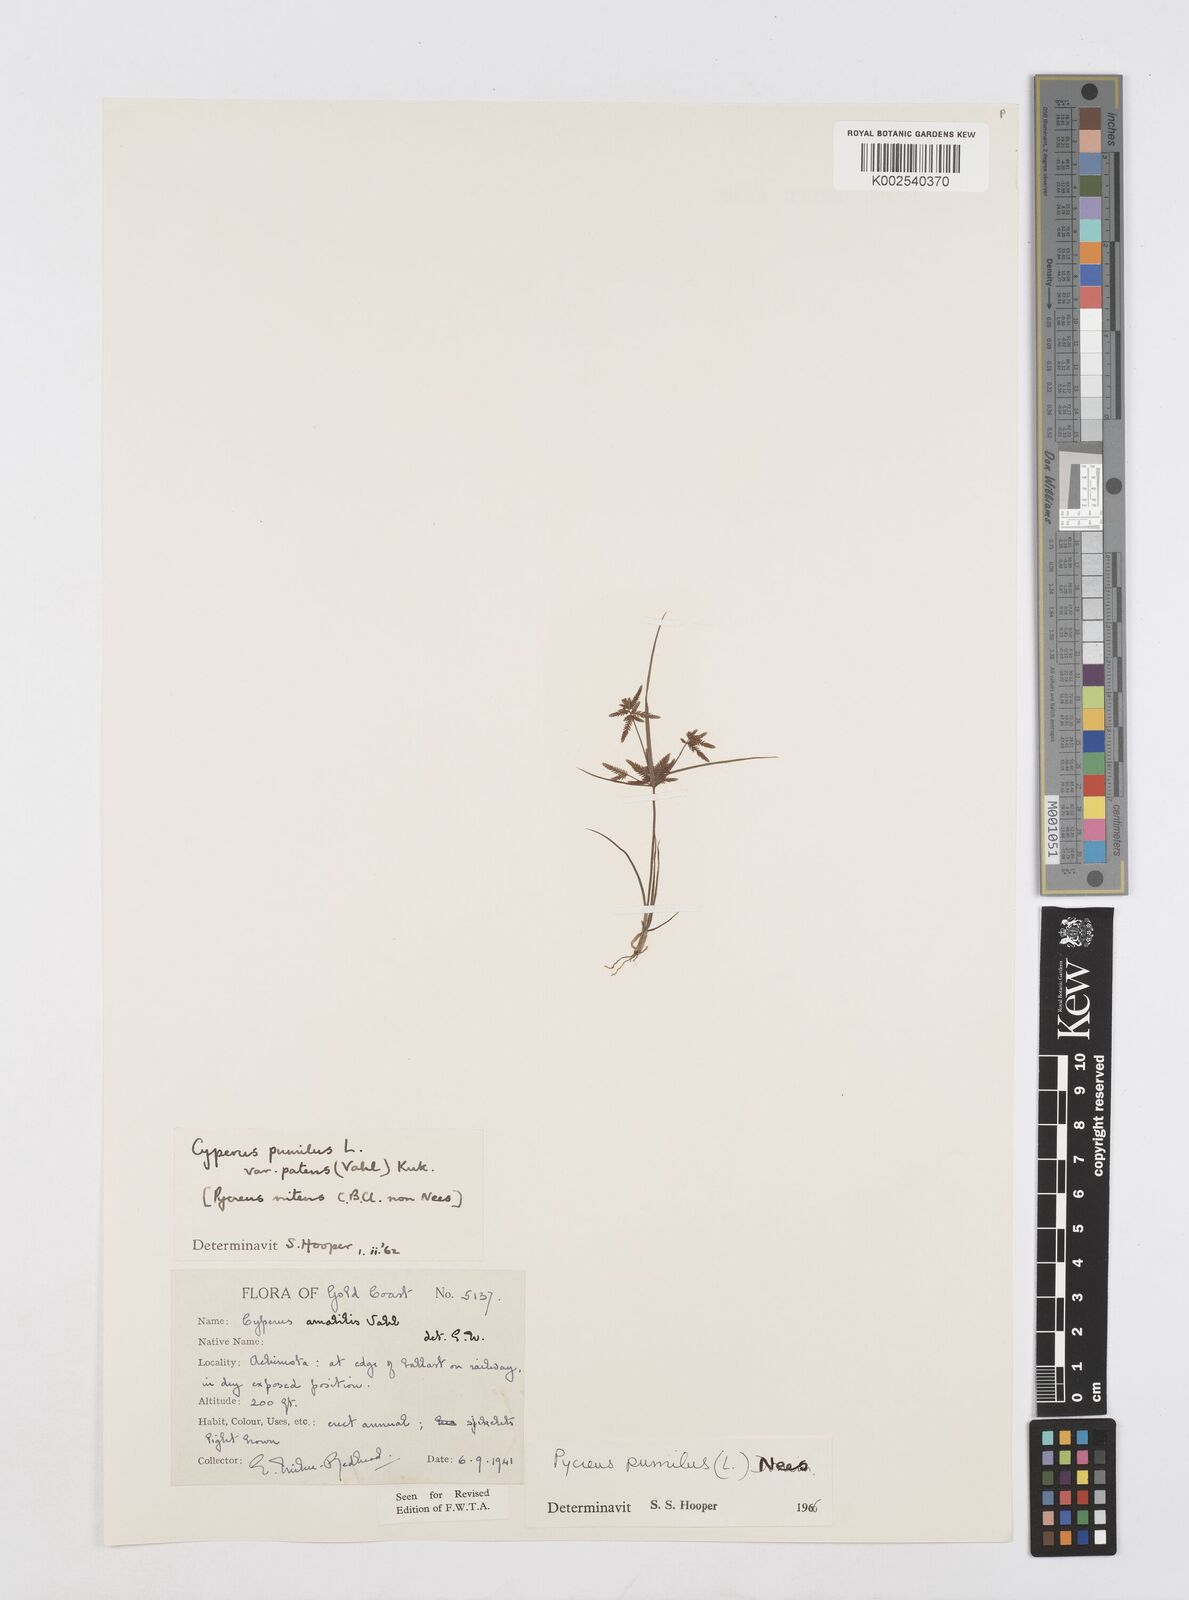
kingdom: Plantae
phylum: Tracheophyta
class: Liliopsida
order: Poales
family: Cyperaceae
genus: Cyperus
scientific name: Cyperus pumilus
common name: Low flatsedge
